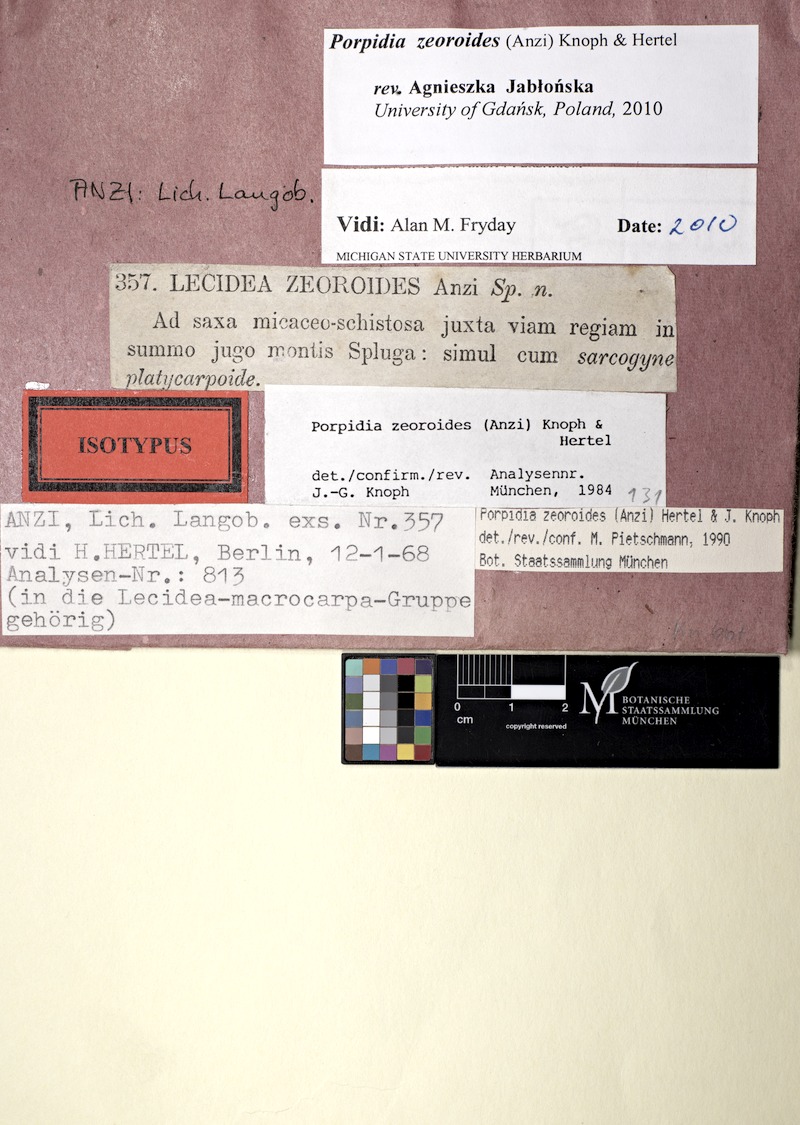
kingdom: Fungi
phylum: Ascomycota
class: Lecanoromycetes
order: Lecideales
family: Lecideaceae
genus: Porpidia
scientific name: Porpidia zeoroides
